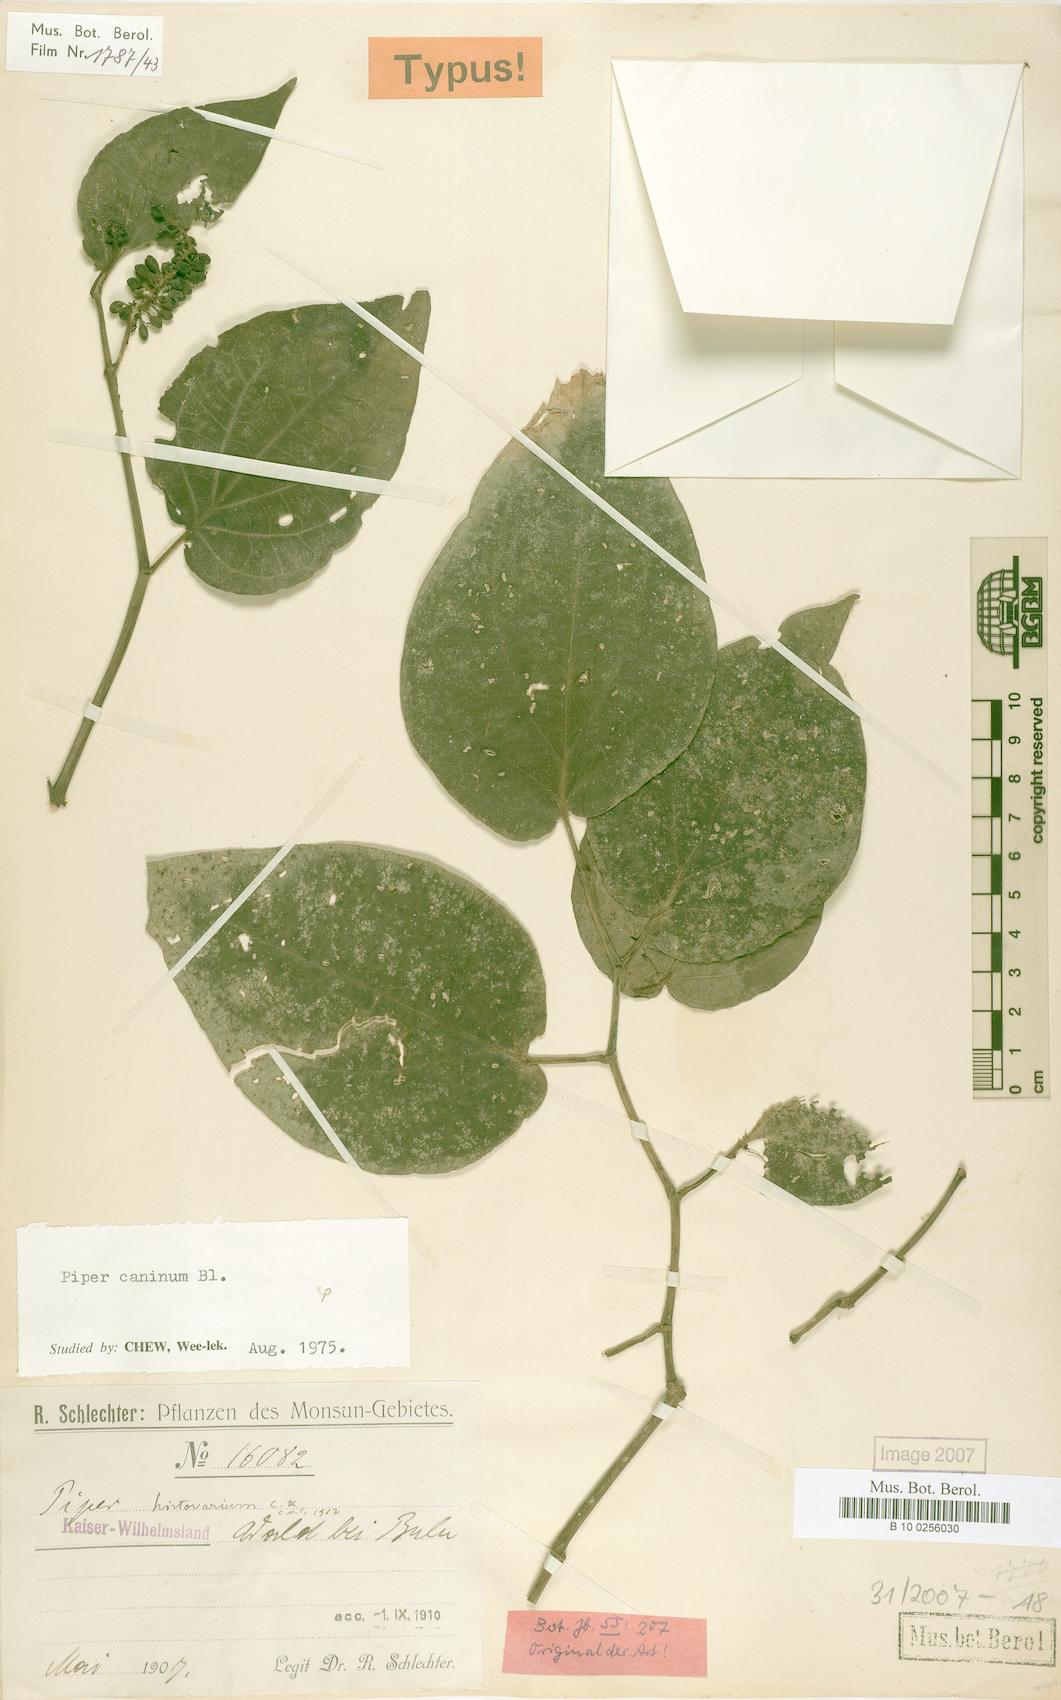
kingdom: Plantae
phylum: Tracheophyta
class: Magnoliopsida
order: Piperales
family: Piperaceae
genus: Piper
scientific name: Piper lanatum
